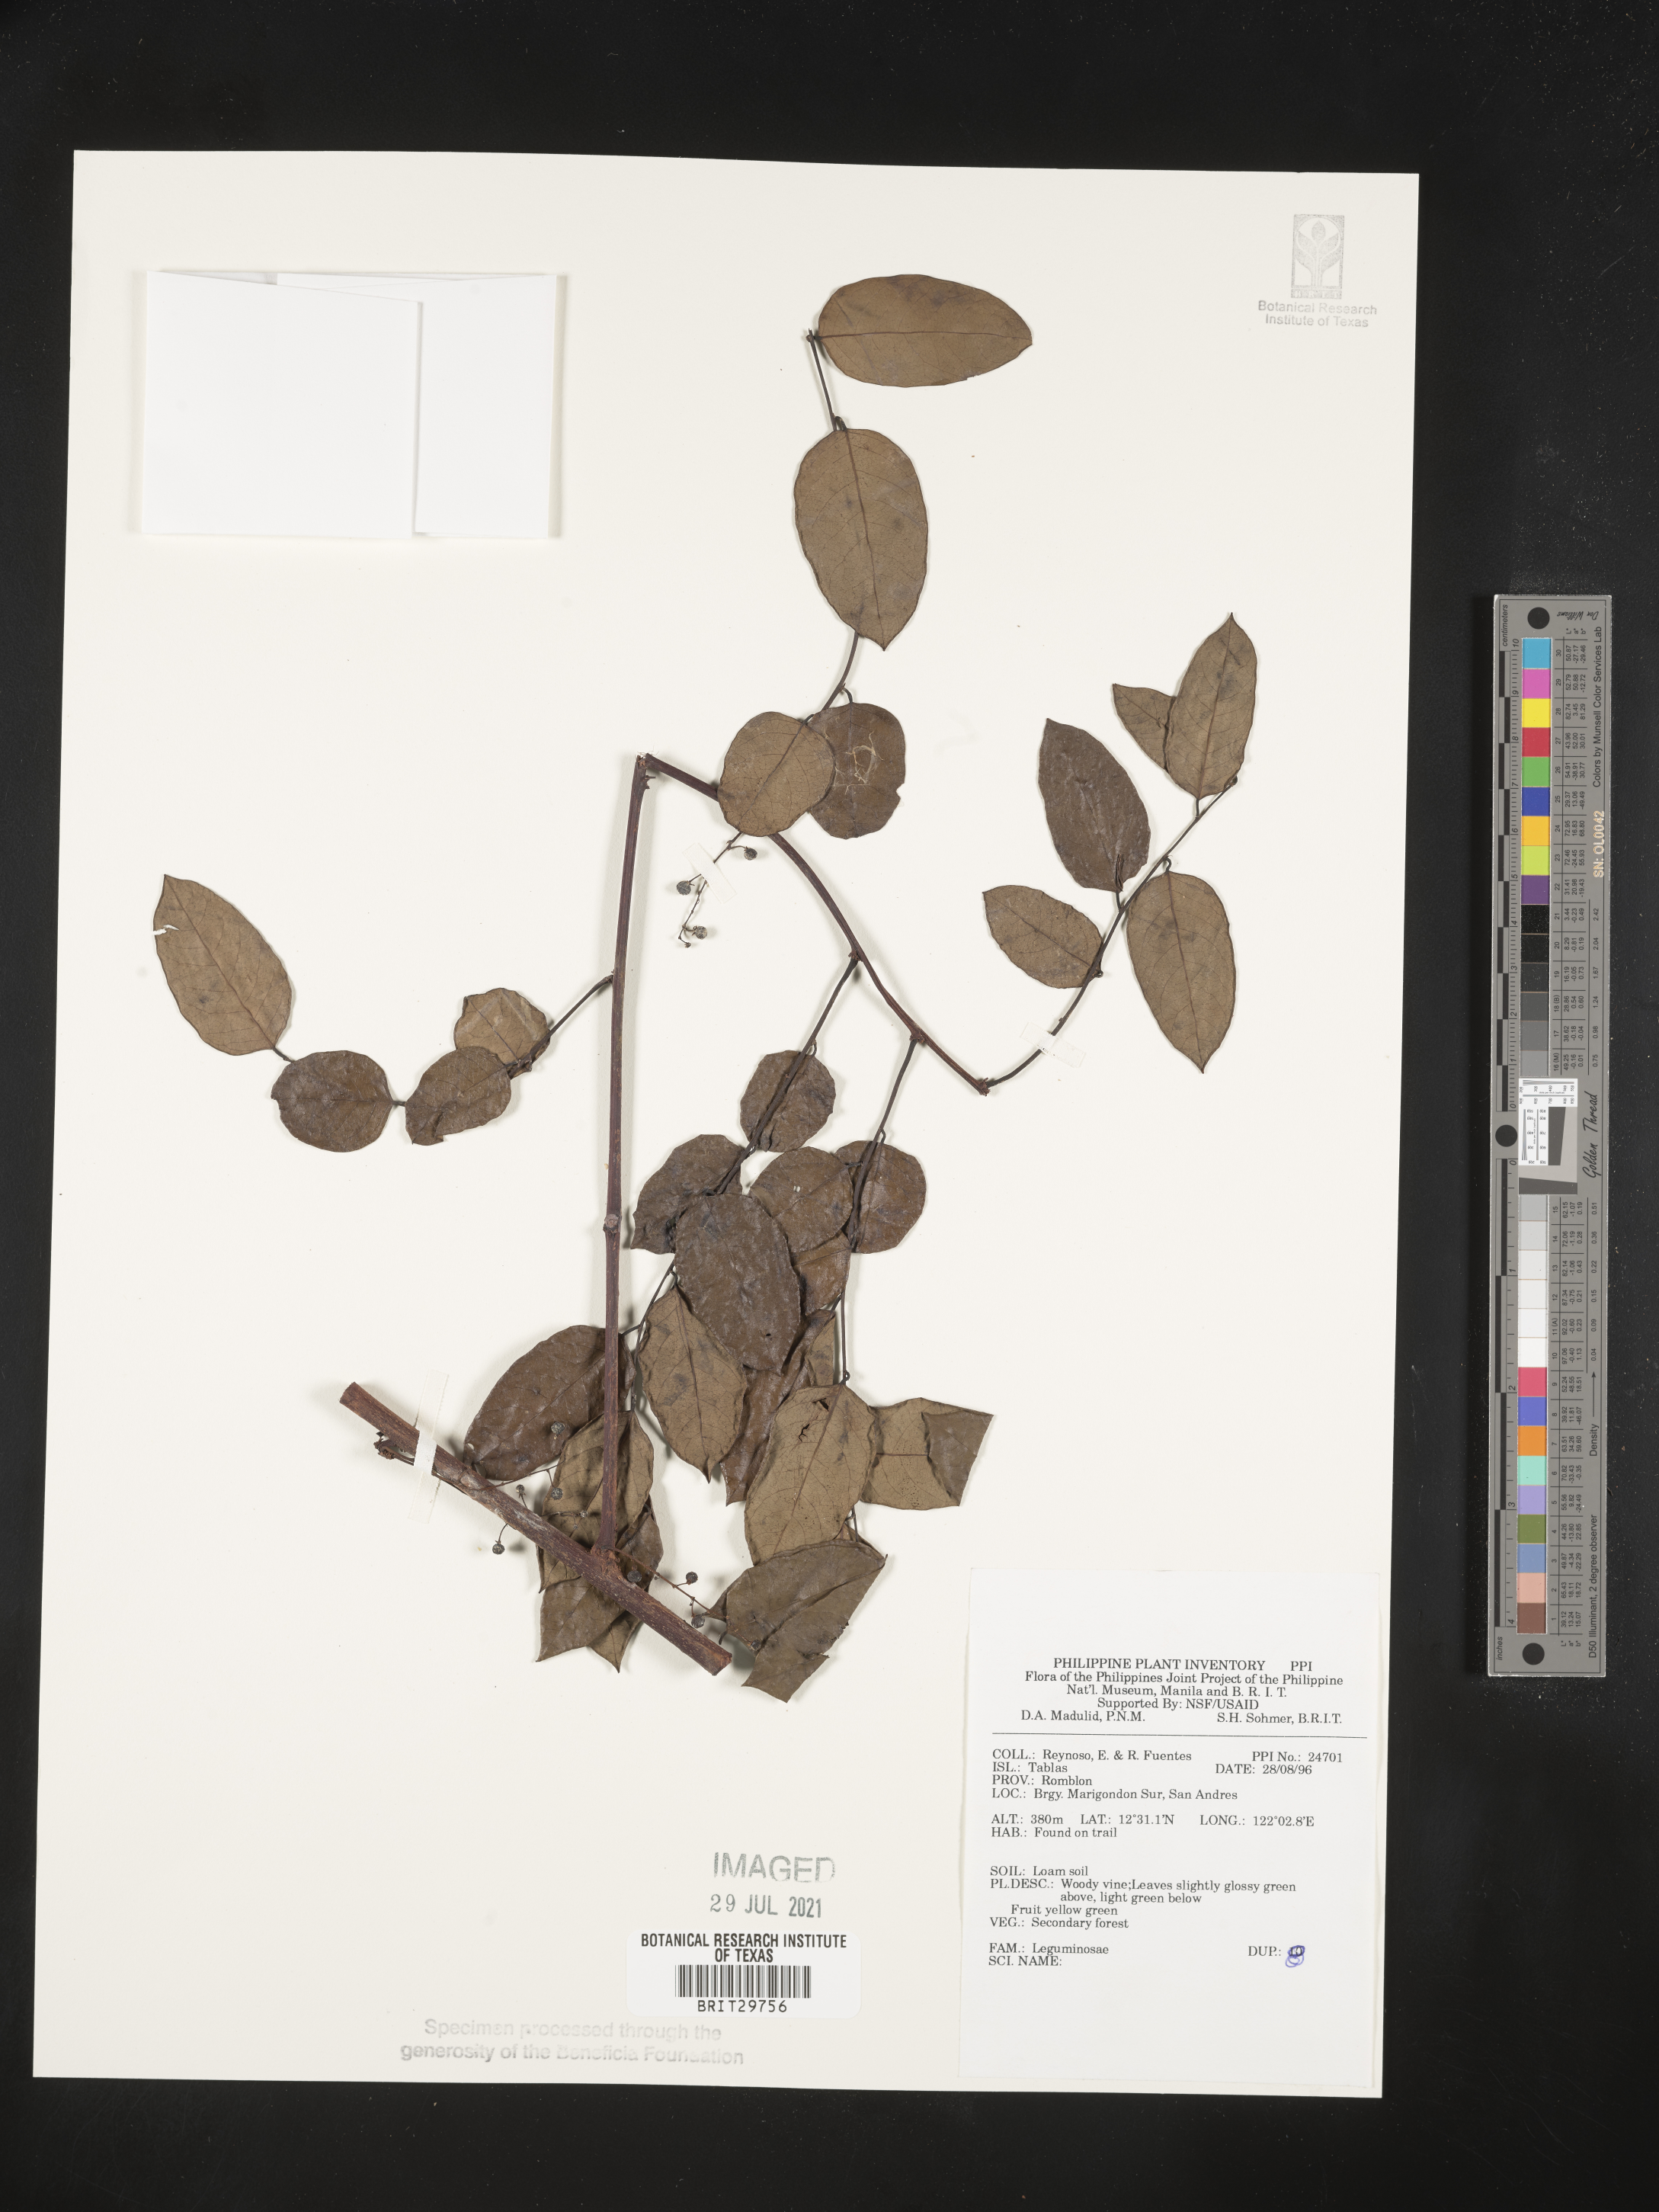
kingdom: Plantae
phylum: Tracheophyta
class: Magnoliopsida
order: Fabales
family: Fabaceae
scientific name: Fabaceae
